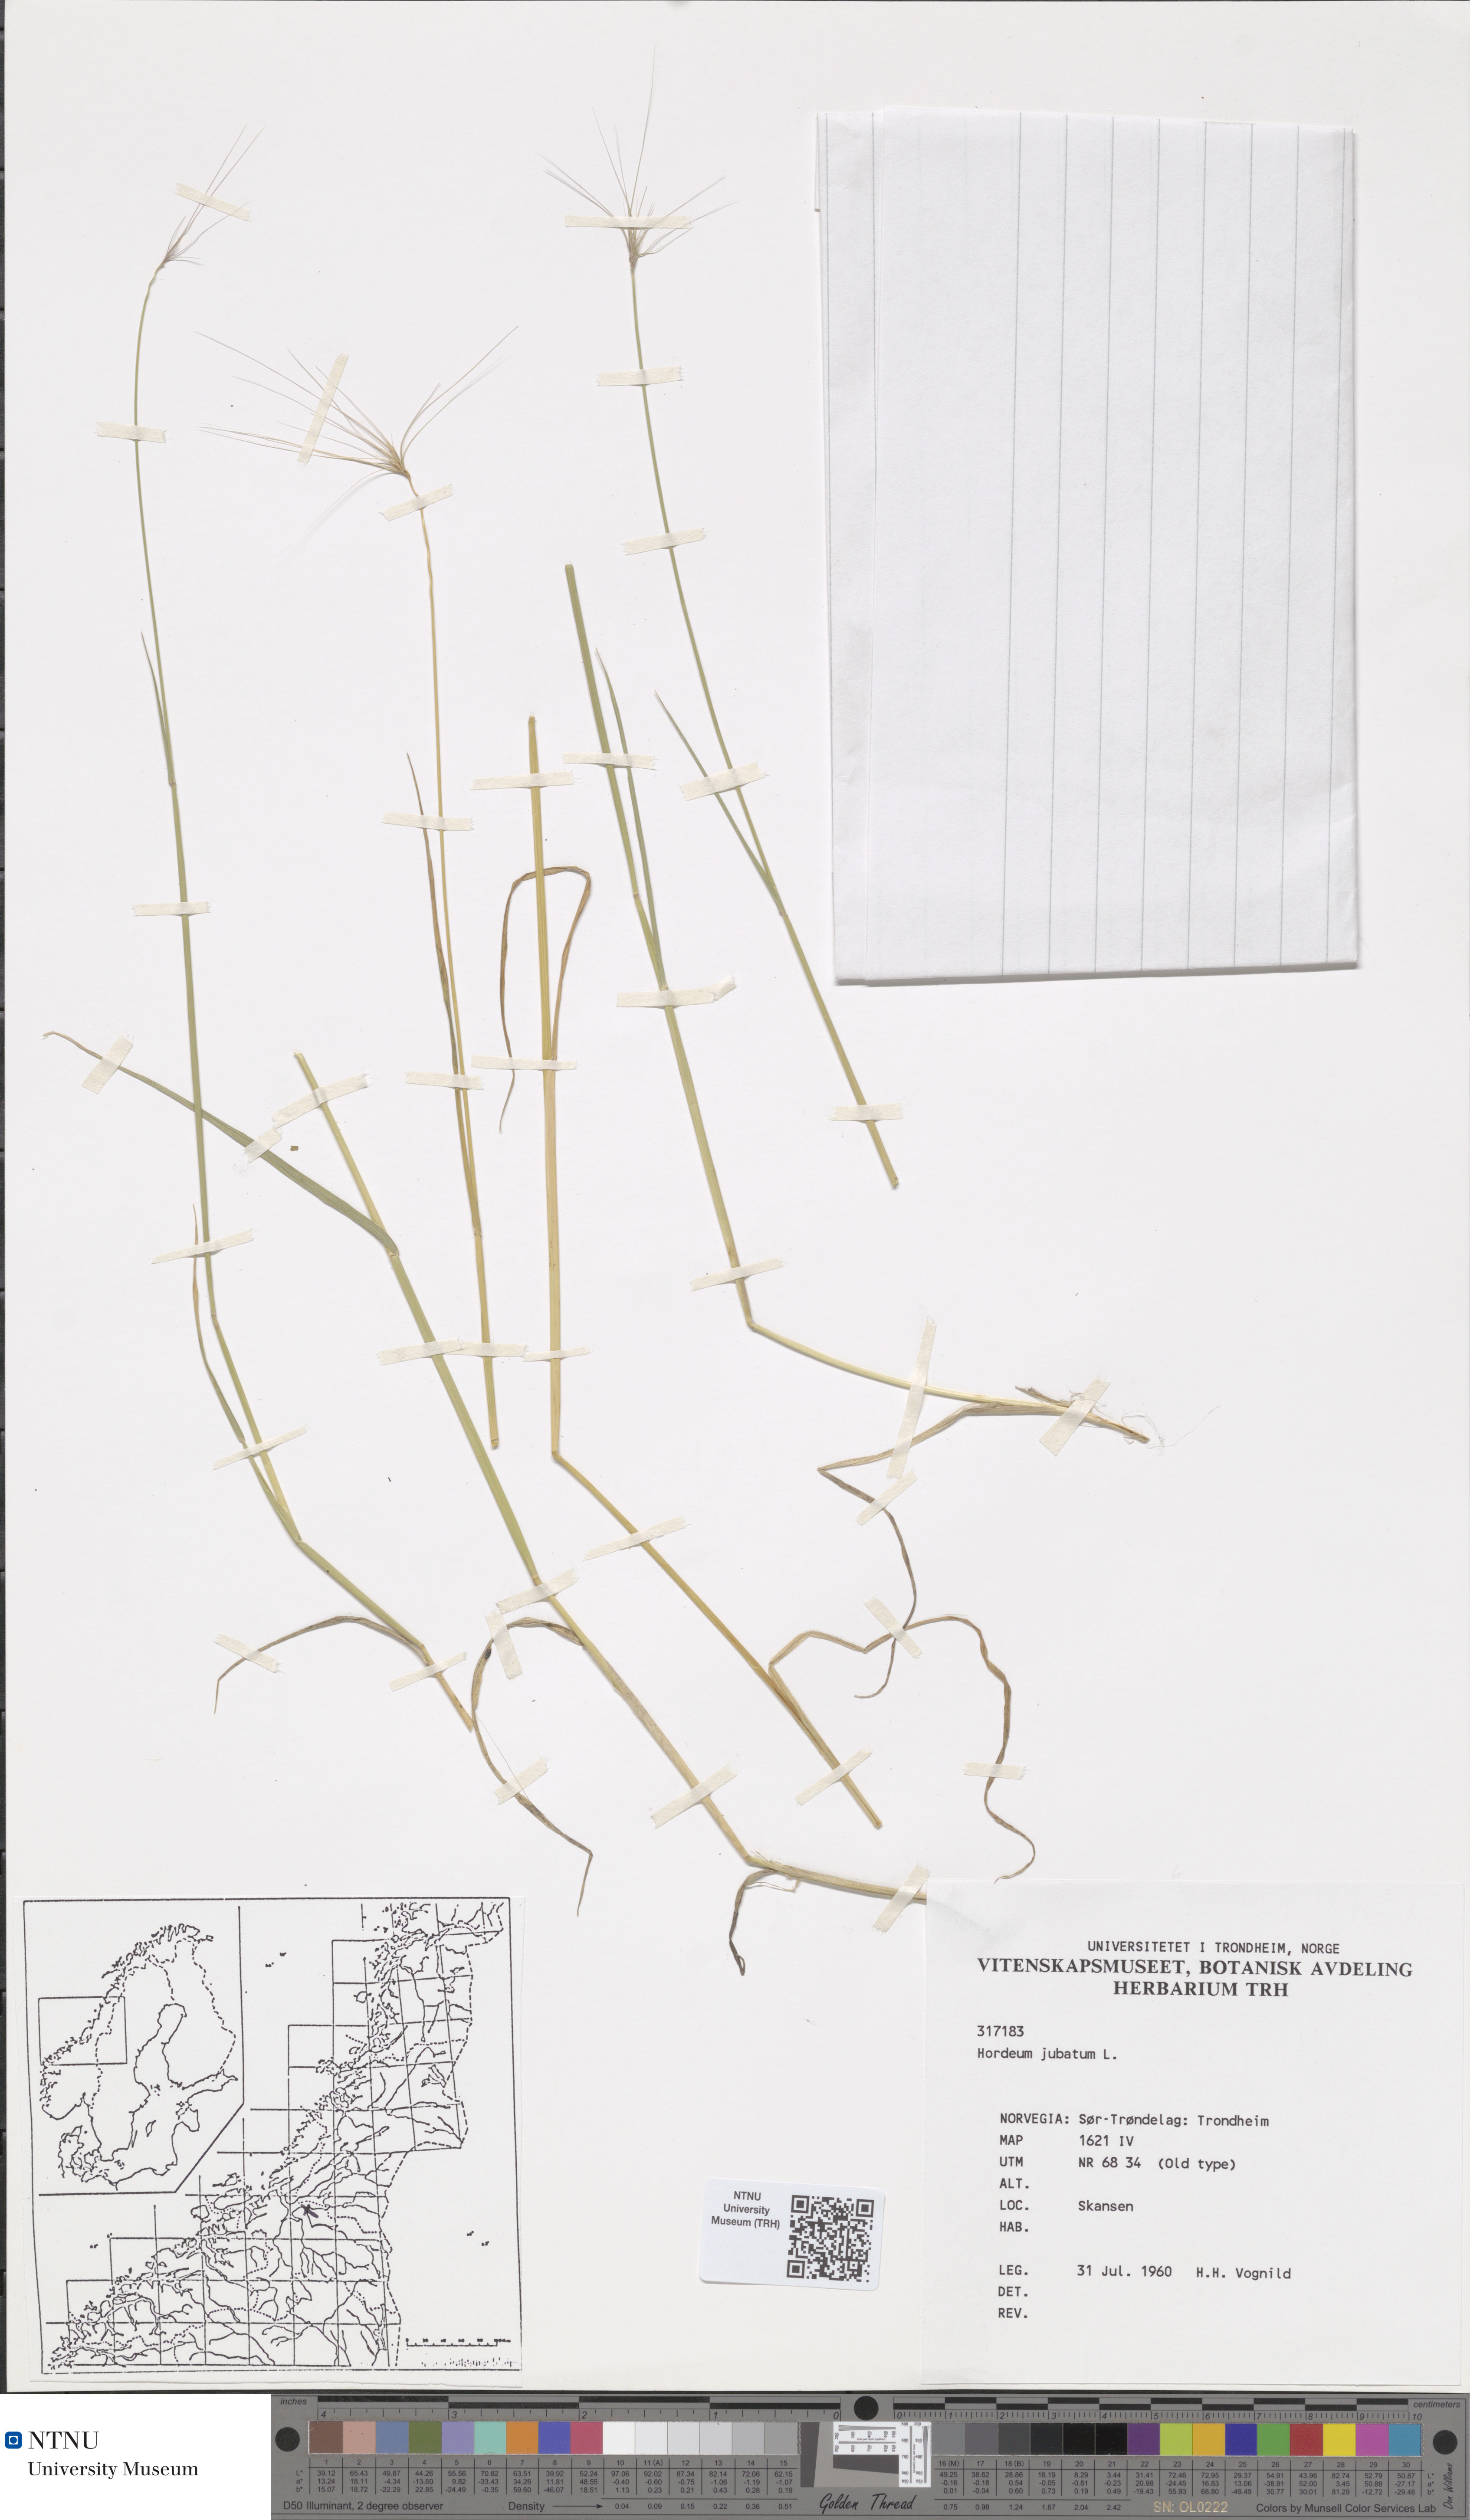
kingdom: Plantae
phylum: Tracheophyta
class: Liliopsida
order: Poales
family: Poaceae
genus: Hordeum
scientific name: Hordeum jubatum
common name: Foxtail barley
